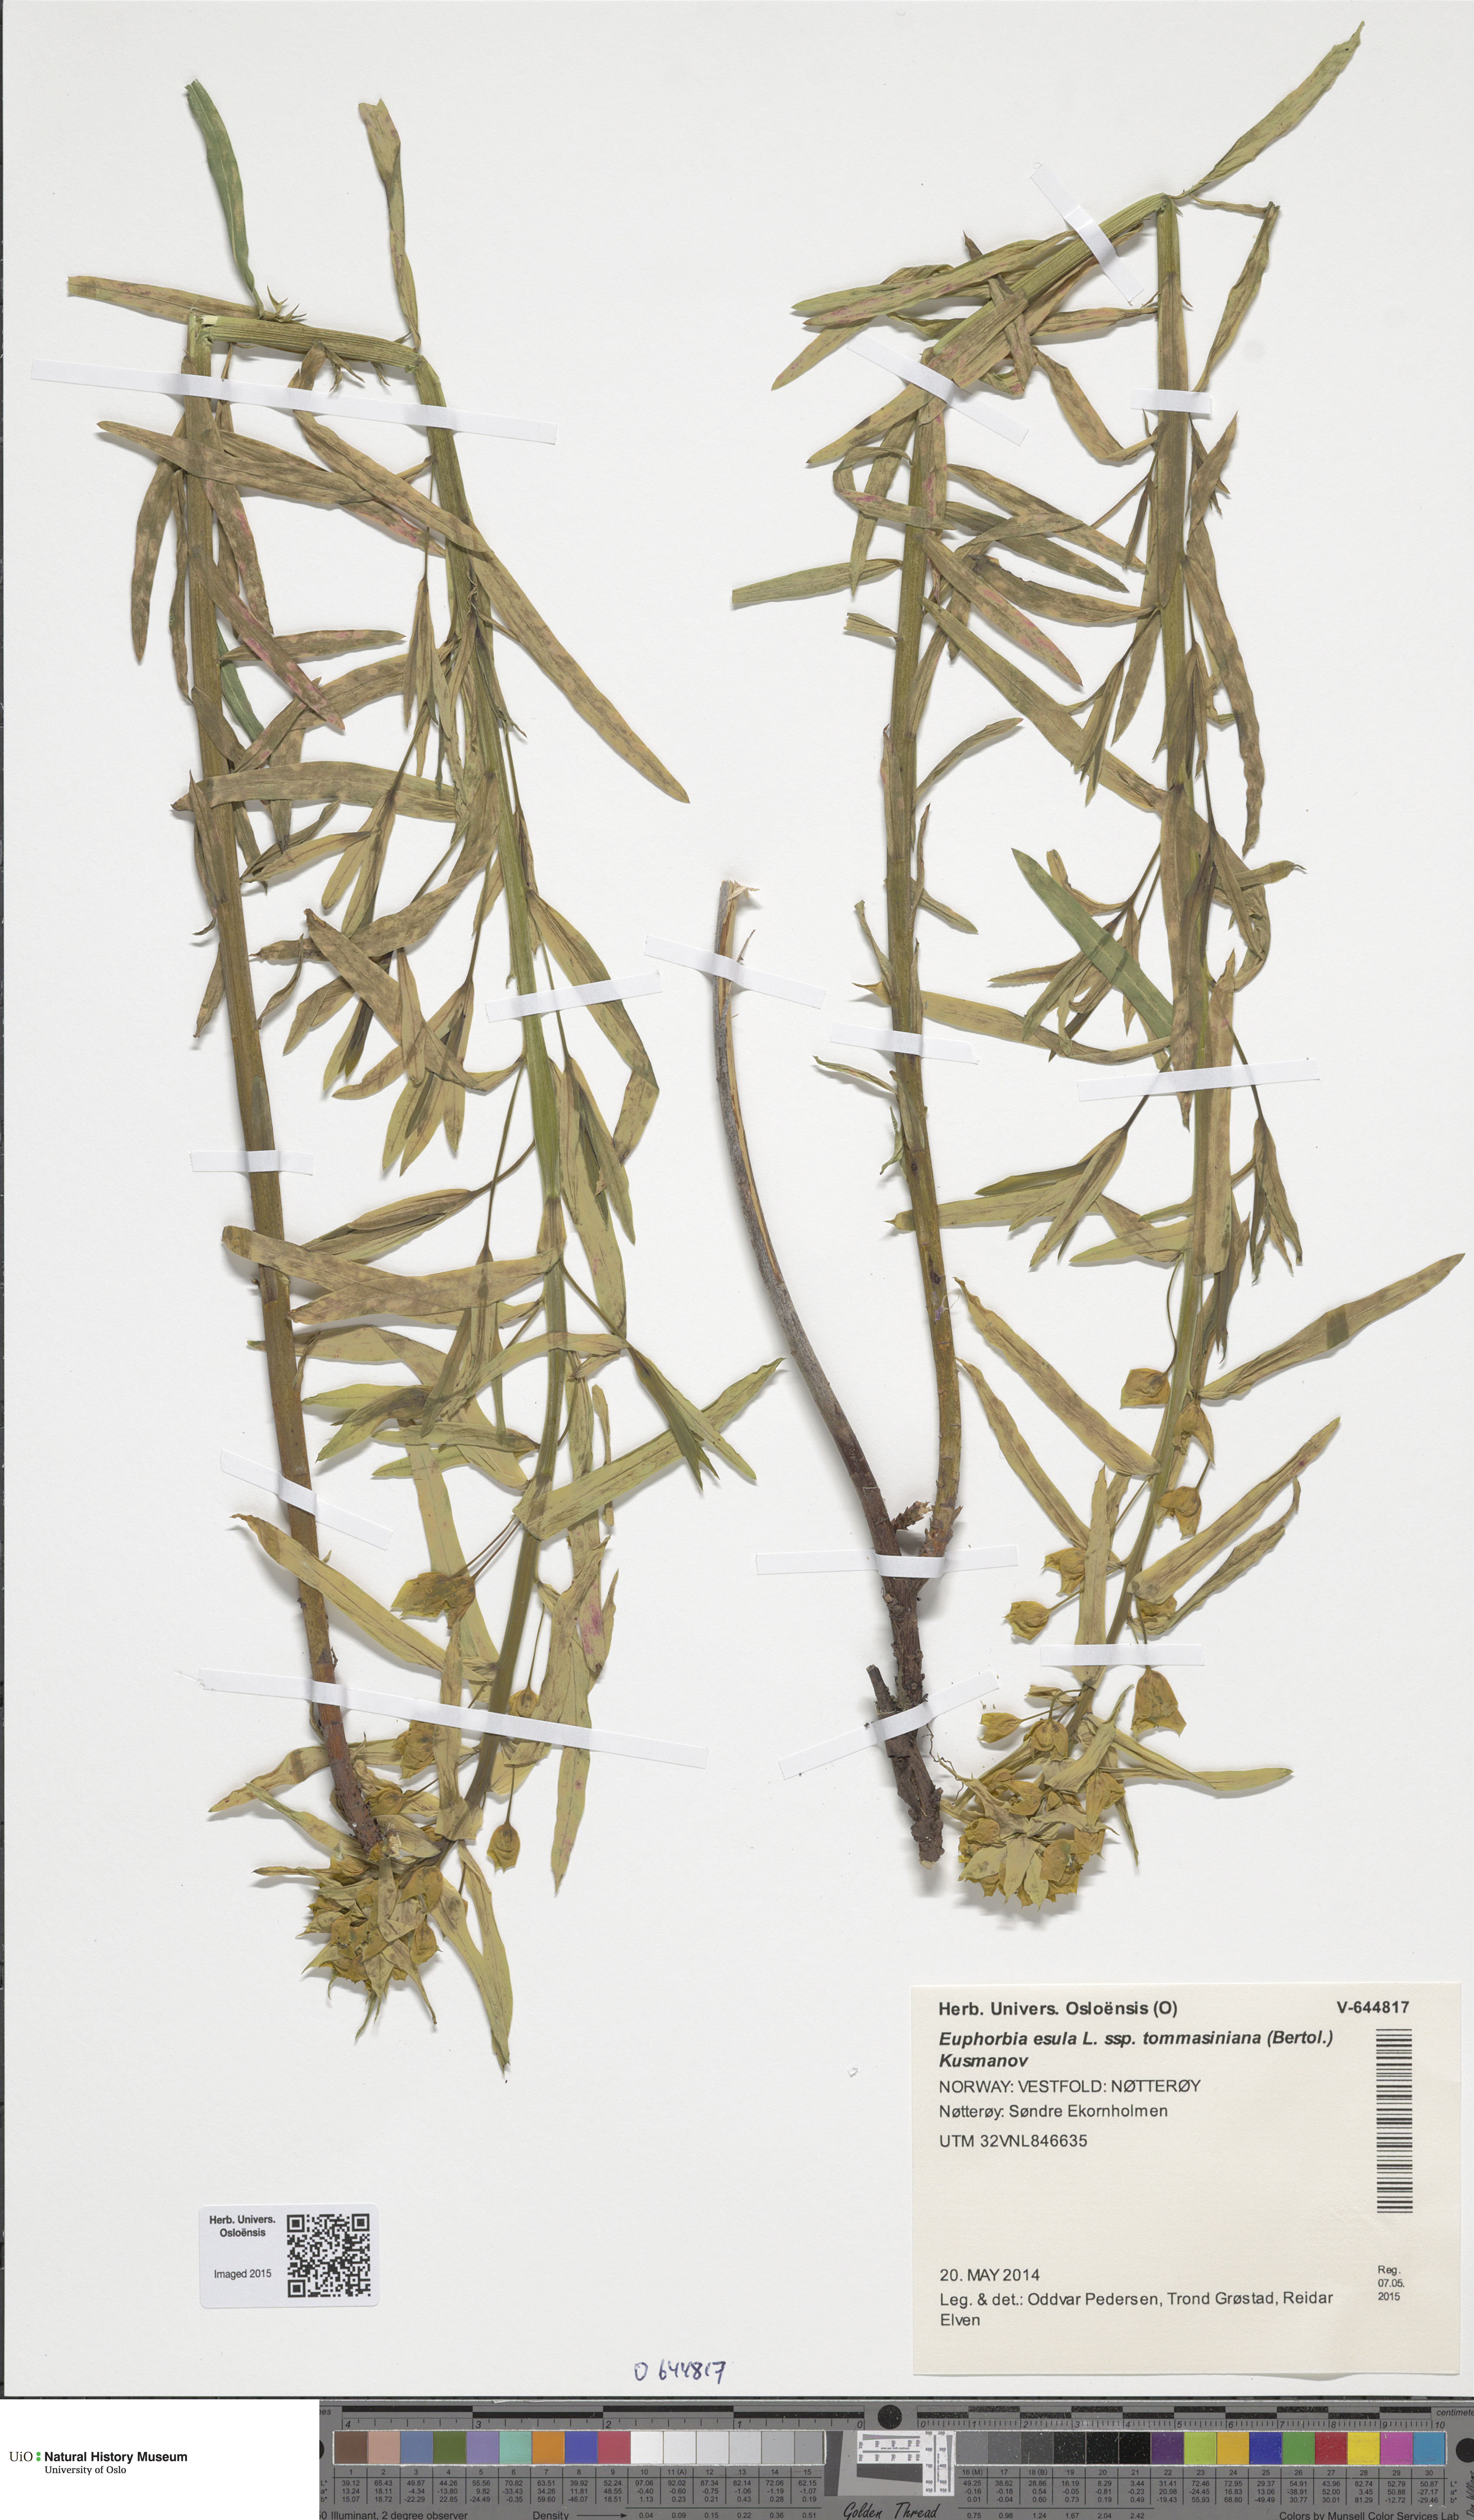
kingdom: Plantae
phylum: Tracheophyta
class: Magnoliopsida
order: Malpighiales
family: Euphorbiaceae
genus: Euphorbia
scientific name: Euphorbia tommasiniana
